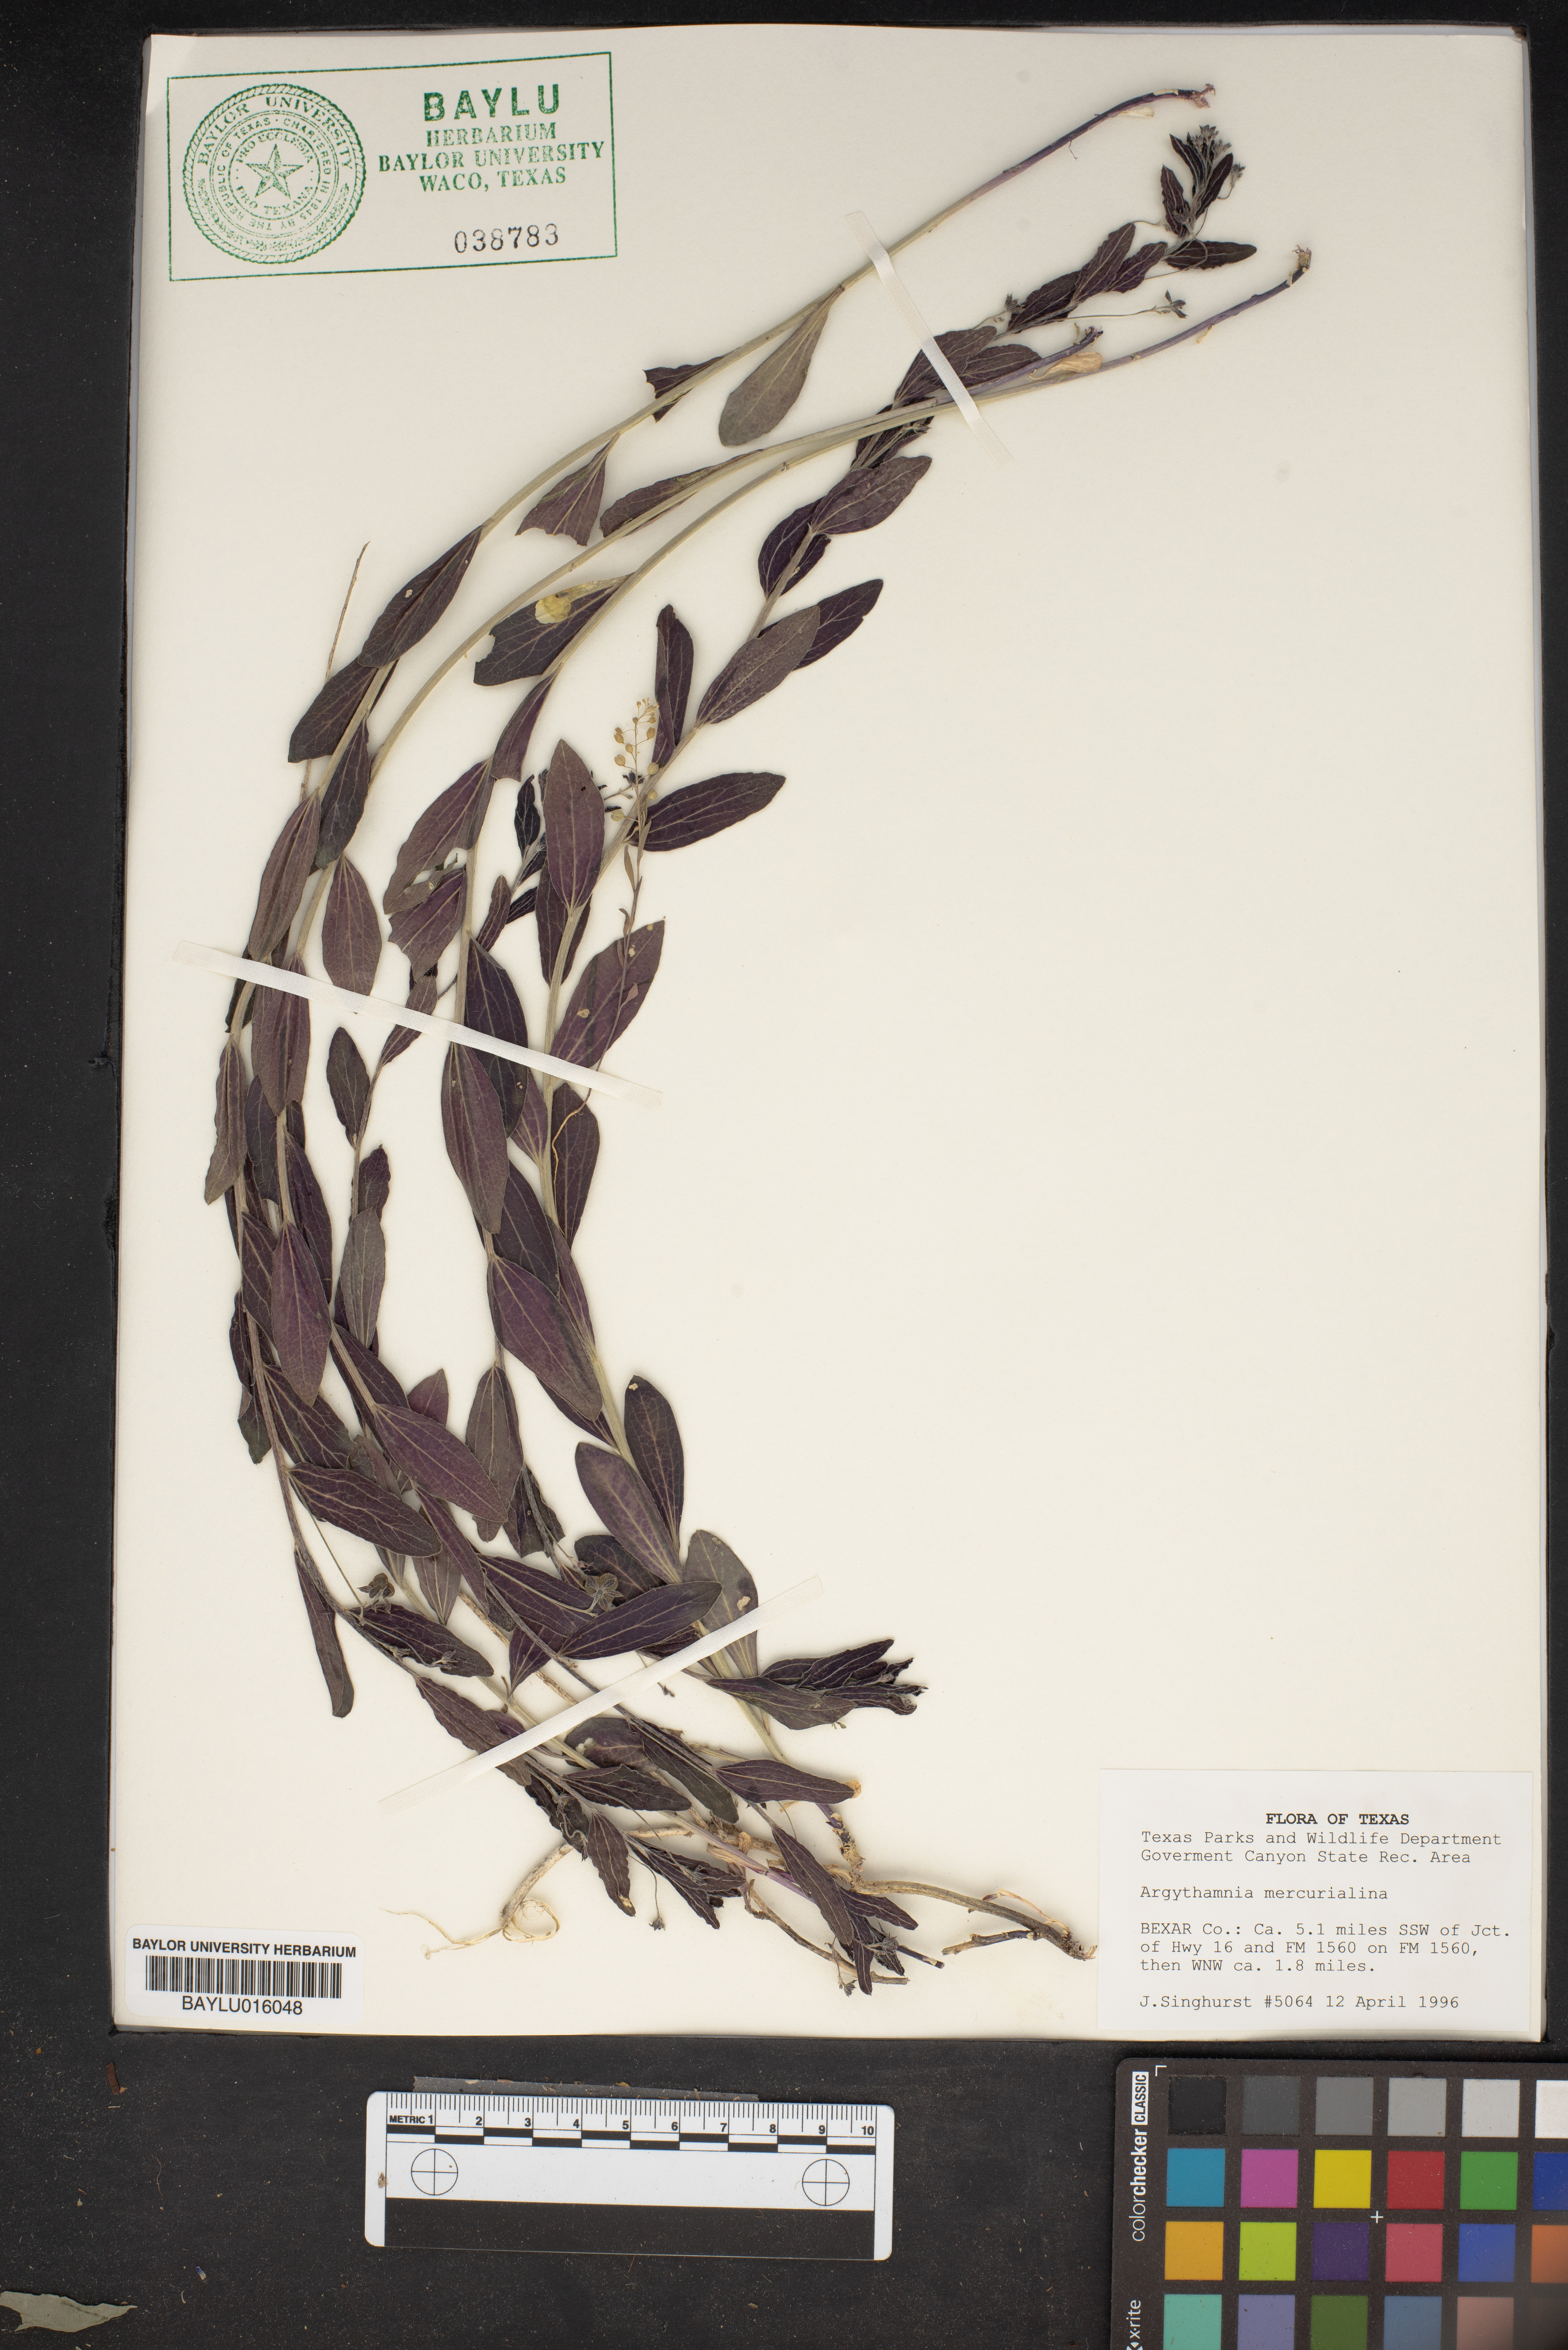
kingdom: Plantae
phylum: Tracheophyta
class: Magnoliopsida
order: Malpighiales
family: Euphorbiaceae
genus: Ditaxis
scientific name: Ditaxis mercurialina
